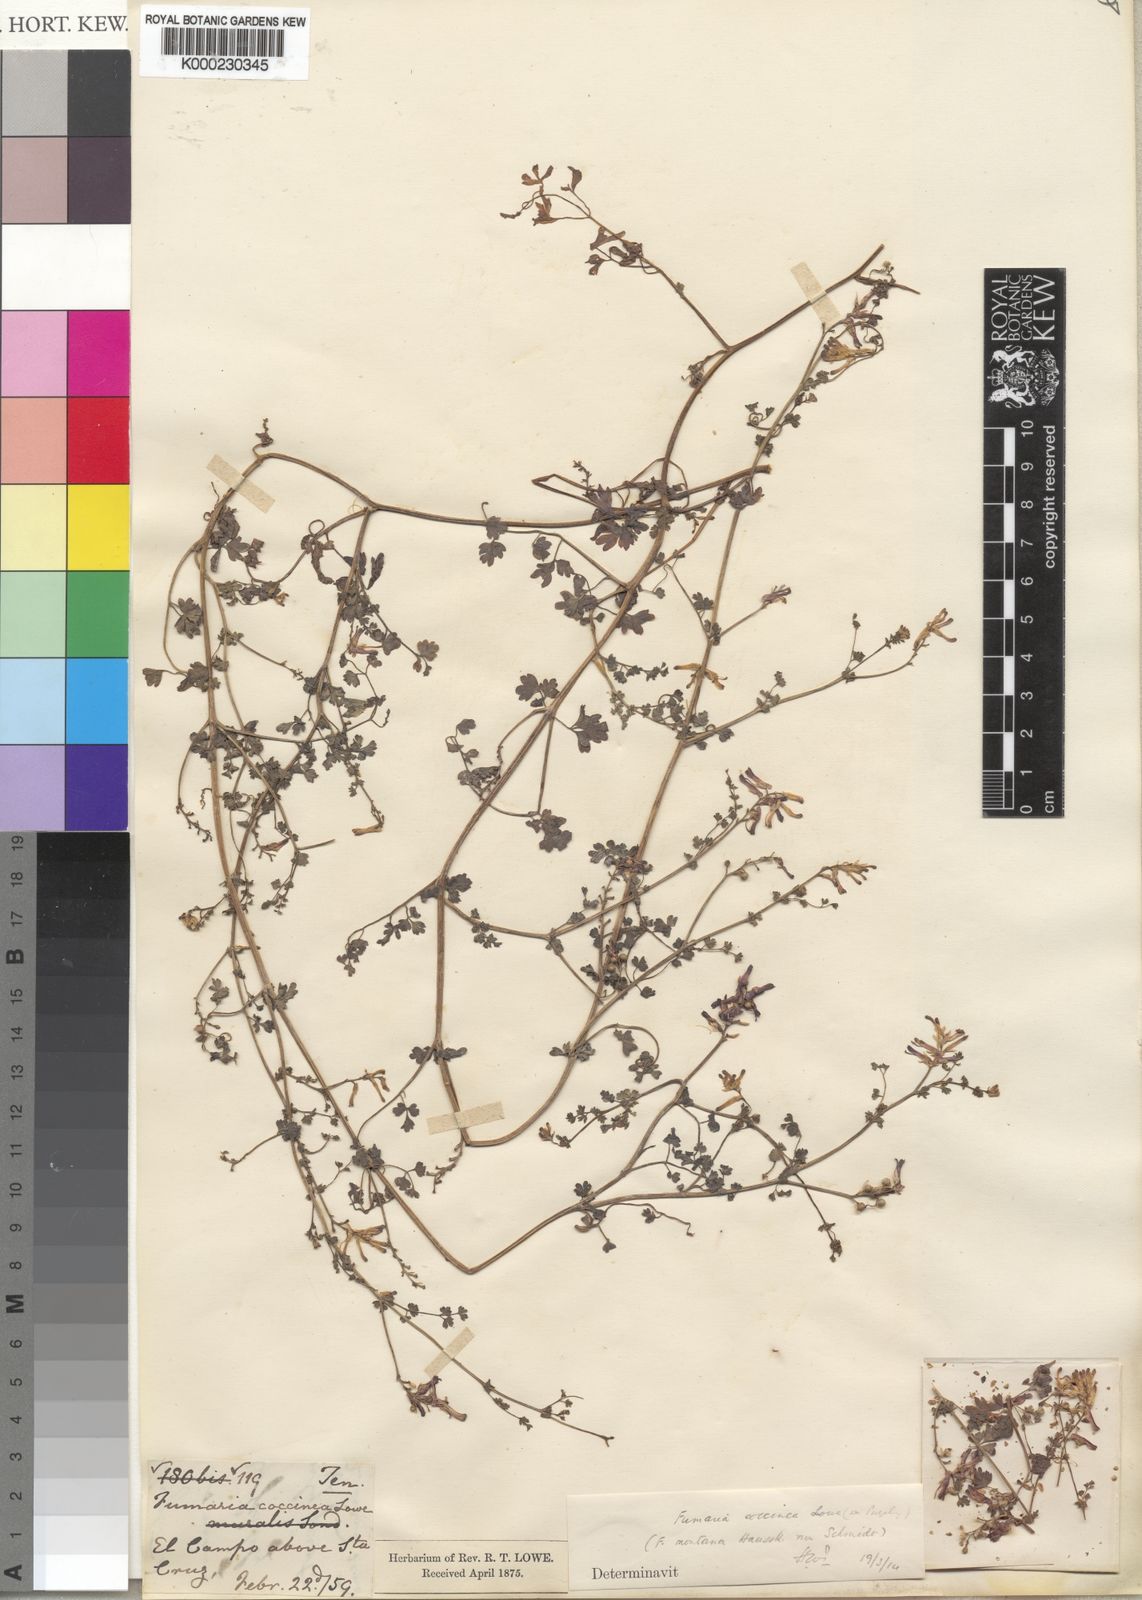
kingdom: Plantae
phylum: Tracheophyta
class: Magnoliopsida
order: Ranunculales
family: Papaveraceae
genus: Fumaria
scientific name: Fumaria coccinea
